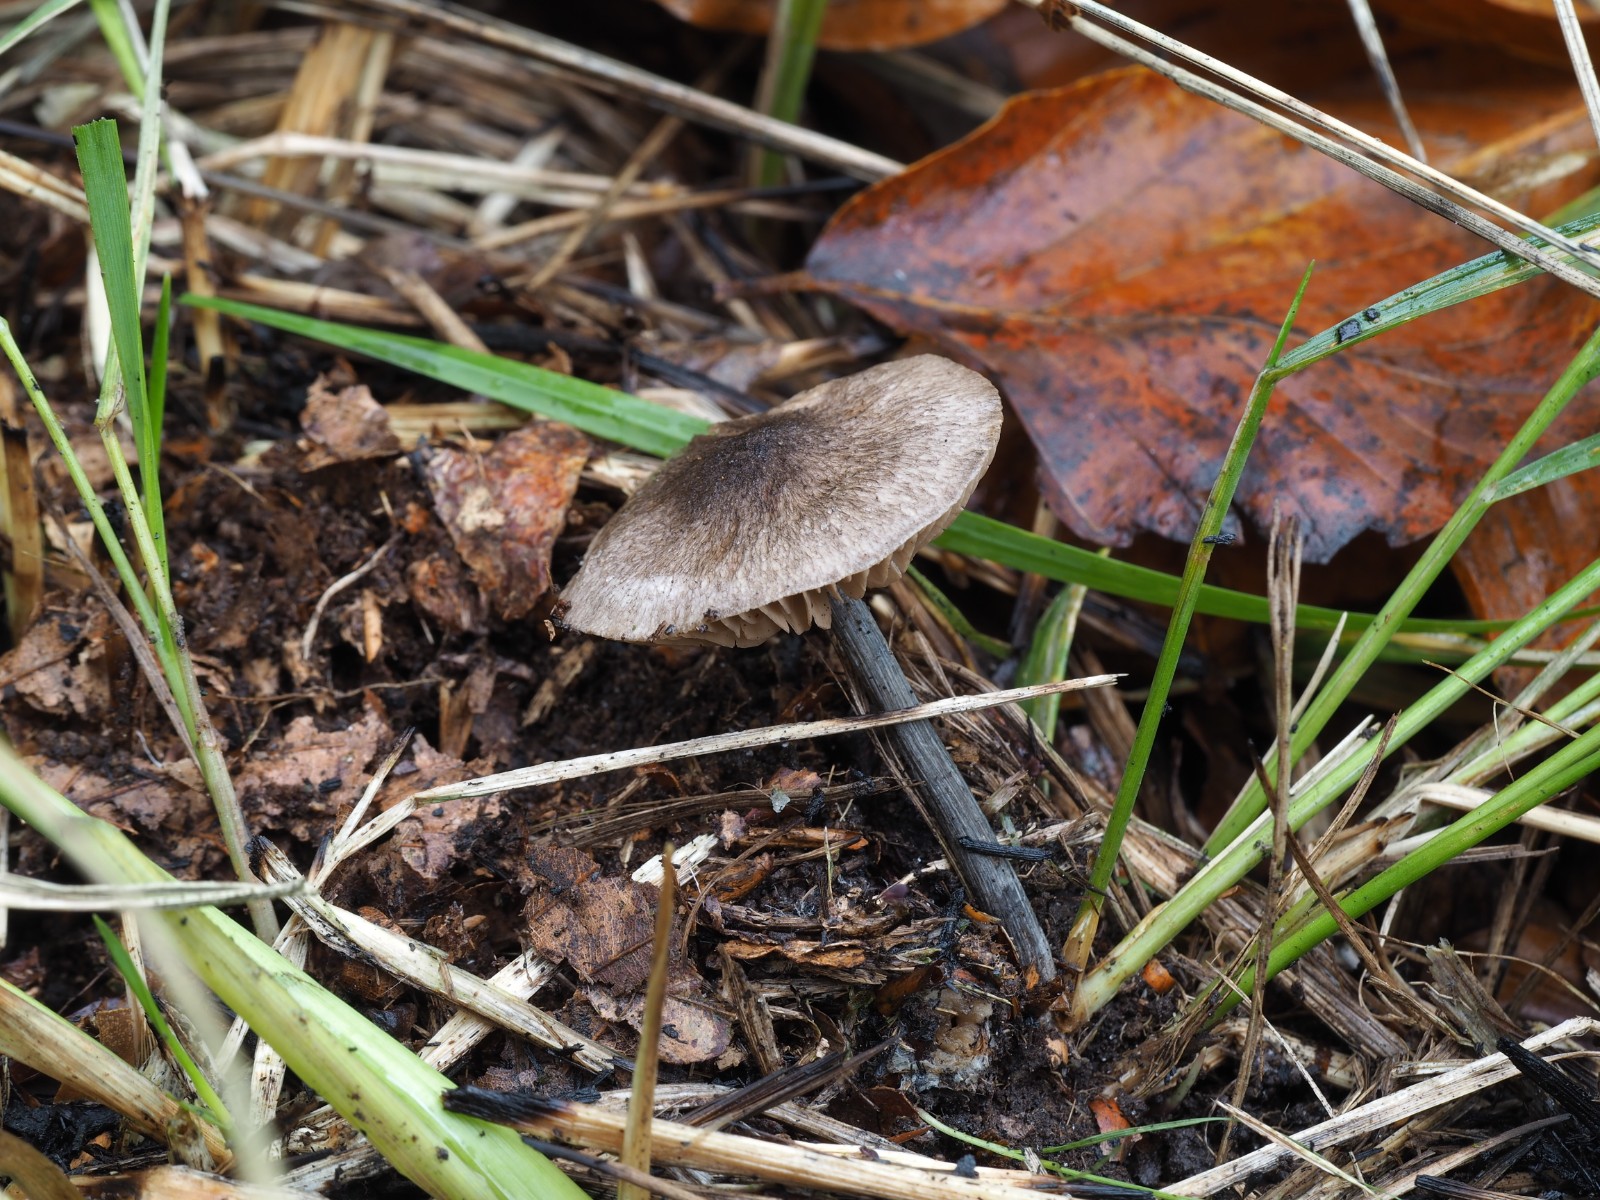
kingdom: Fungi
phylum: Basidiomycota
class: Agaricomycetes
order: Agaricales
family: Entolomataceae
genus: Entoloma
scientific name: Entoloma placidum
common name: bøge-rødblad
